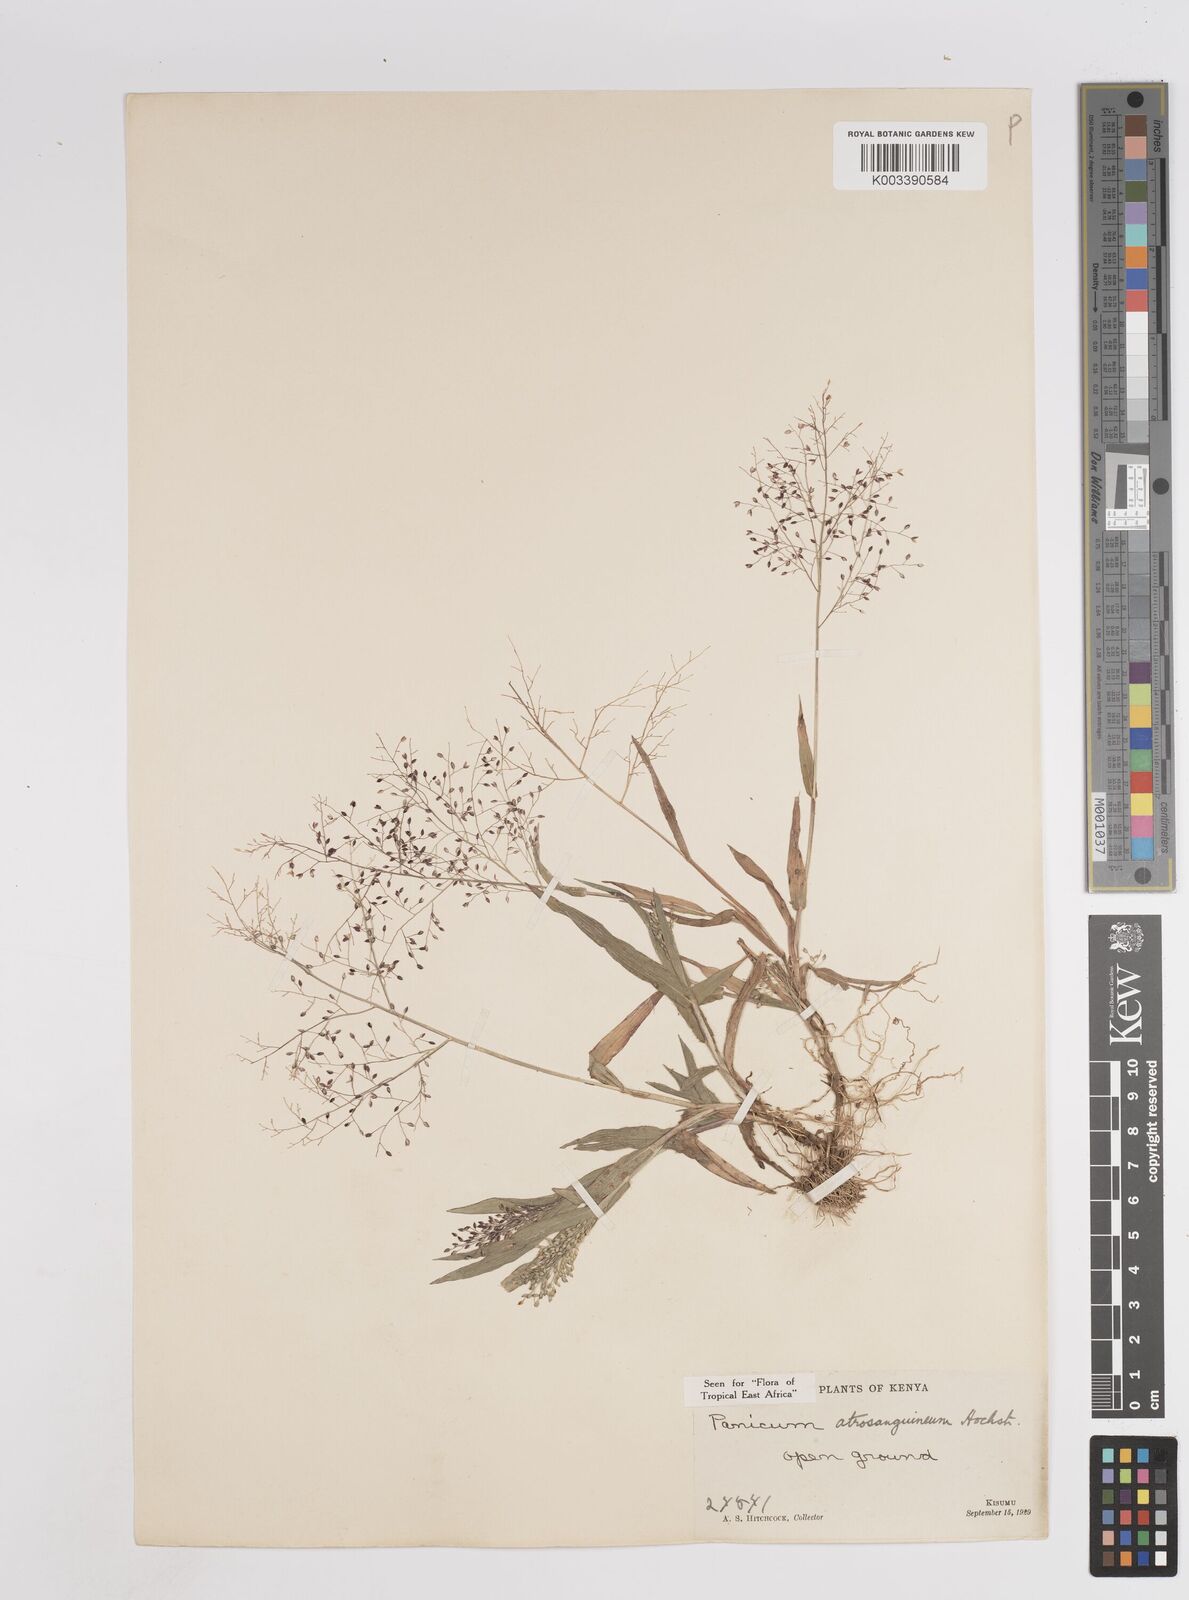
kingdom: Plantae
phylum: Tracheophyta
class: Liliopsida
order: Poales
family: Poaceae
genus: Panicum
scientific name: Panicum atrosanguineum
